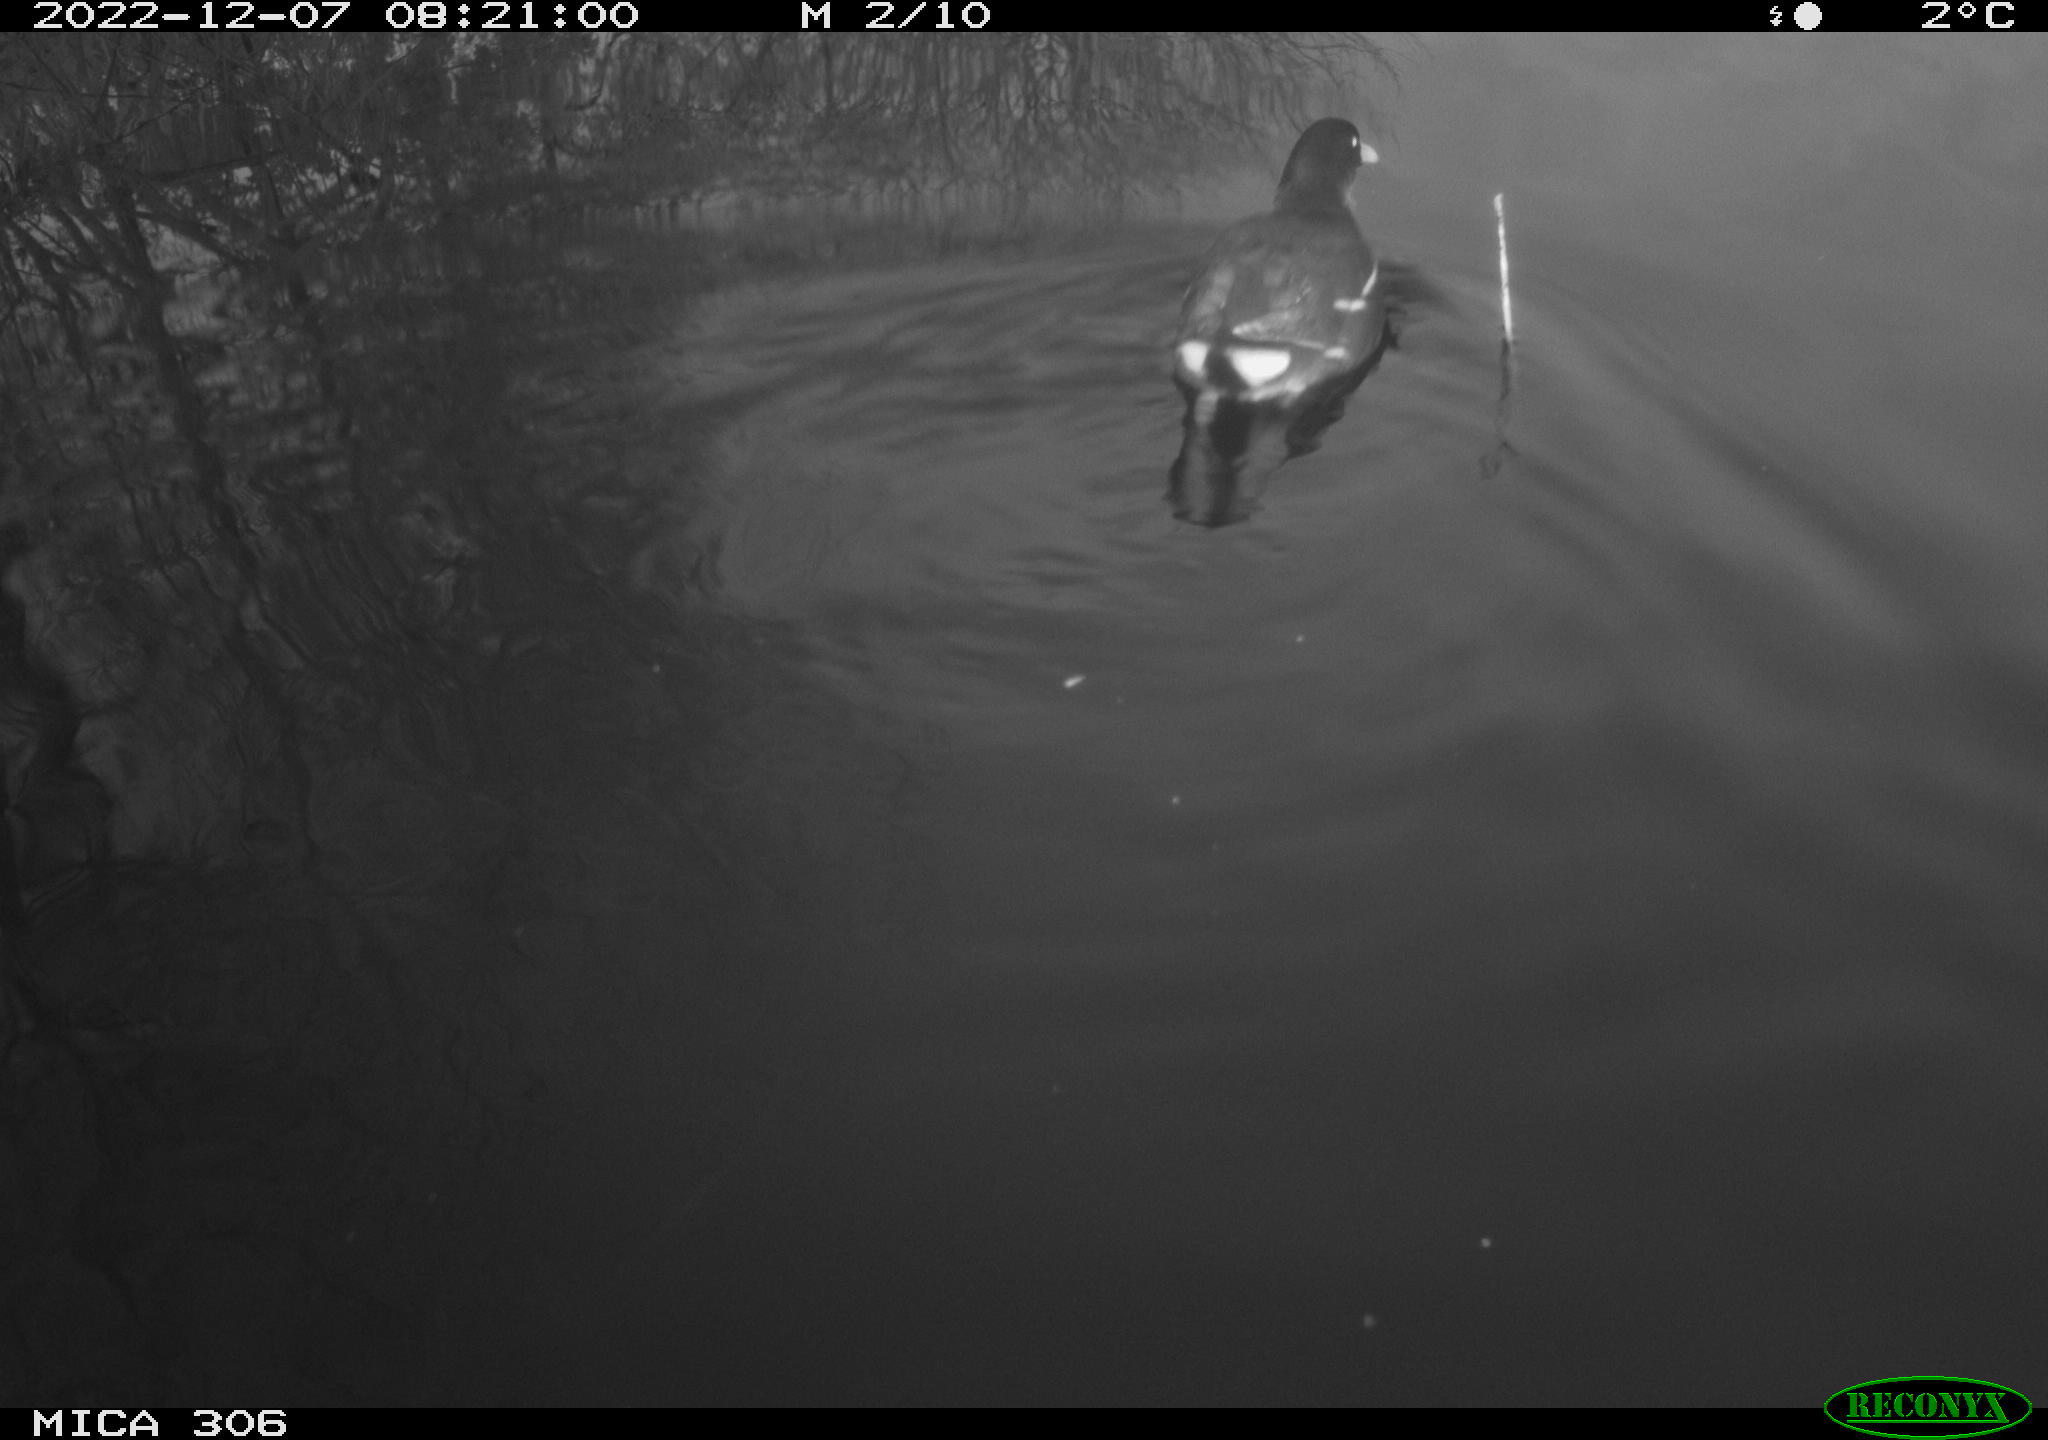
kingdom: Animalia
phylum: Chordata
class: Aves
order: Gruiformes
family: Rallidae
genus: Gallinula
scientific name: Gallinula chloropus
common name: Common moorhen
